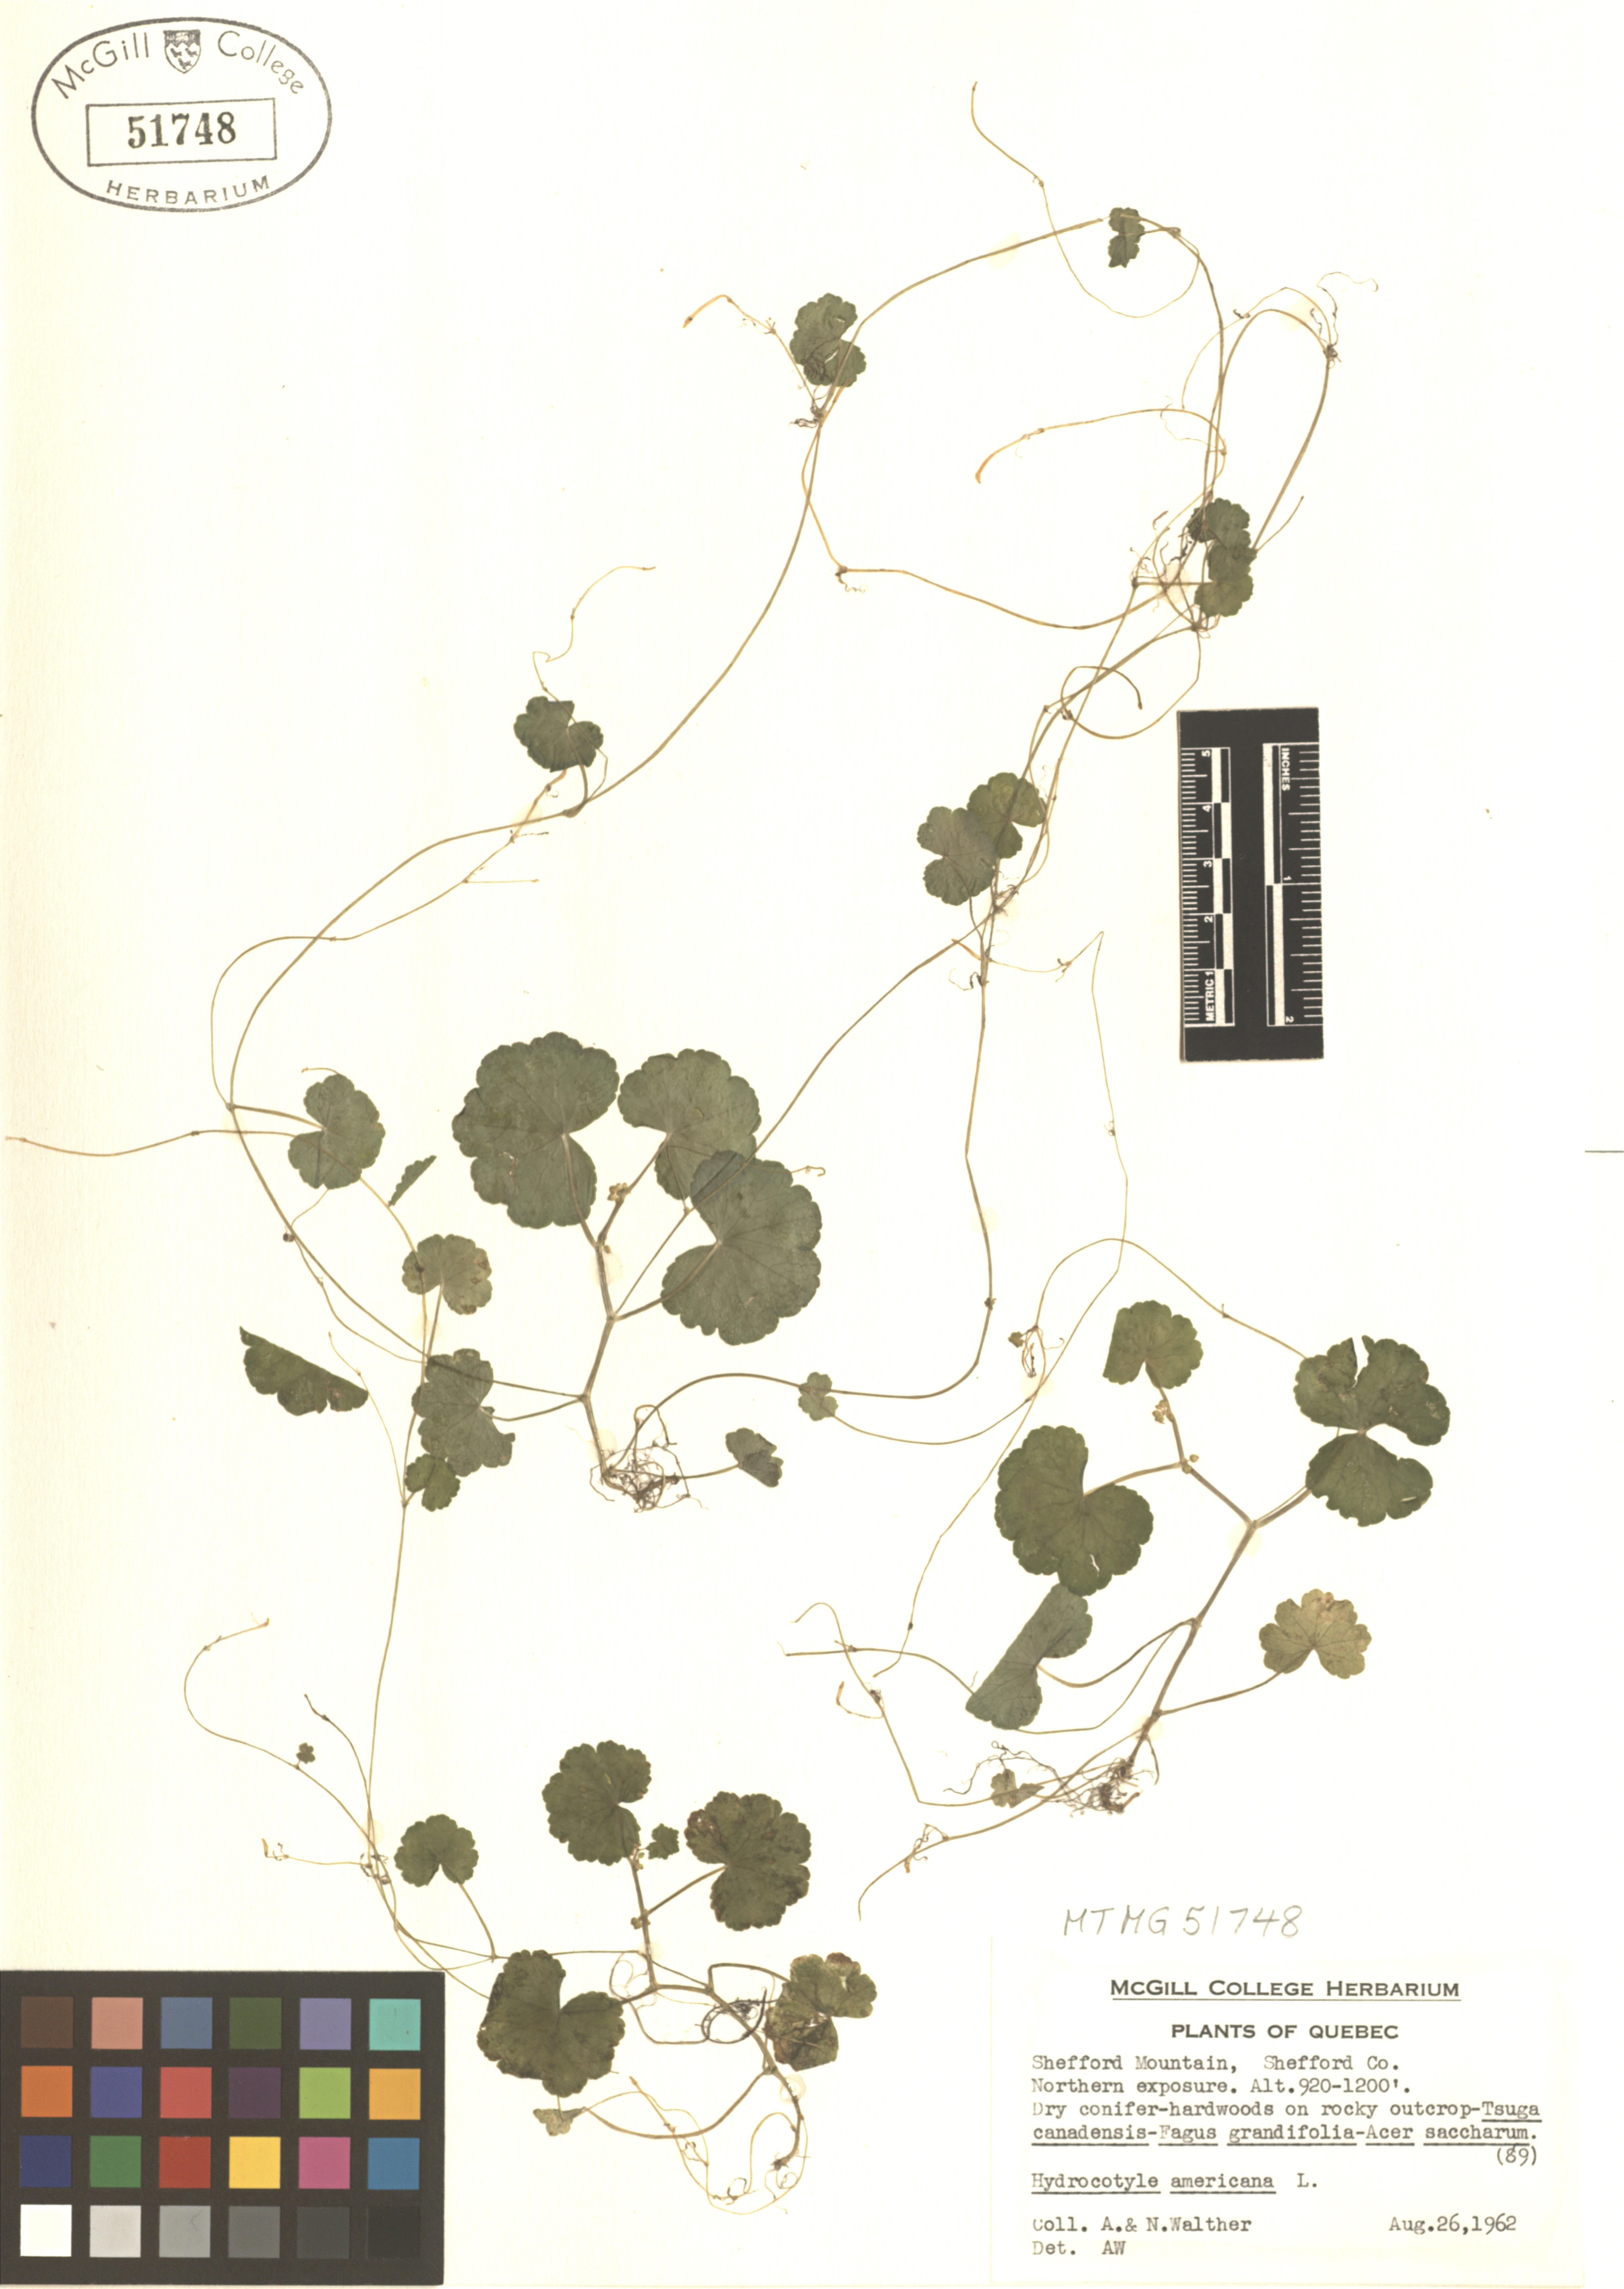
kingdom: Plantae
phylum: Tracheophyta
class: Magnoliopsida
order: Apiales
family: Araliaceae
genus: Hydrocotyle
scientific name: Hydrocotyle americana
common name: American water-pennywort
